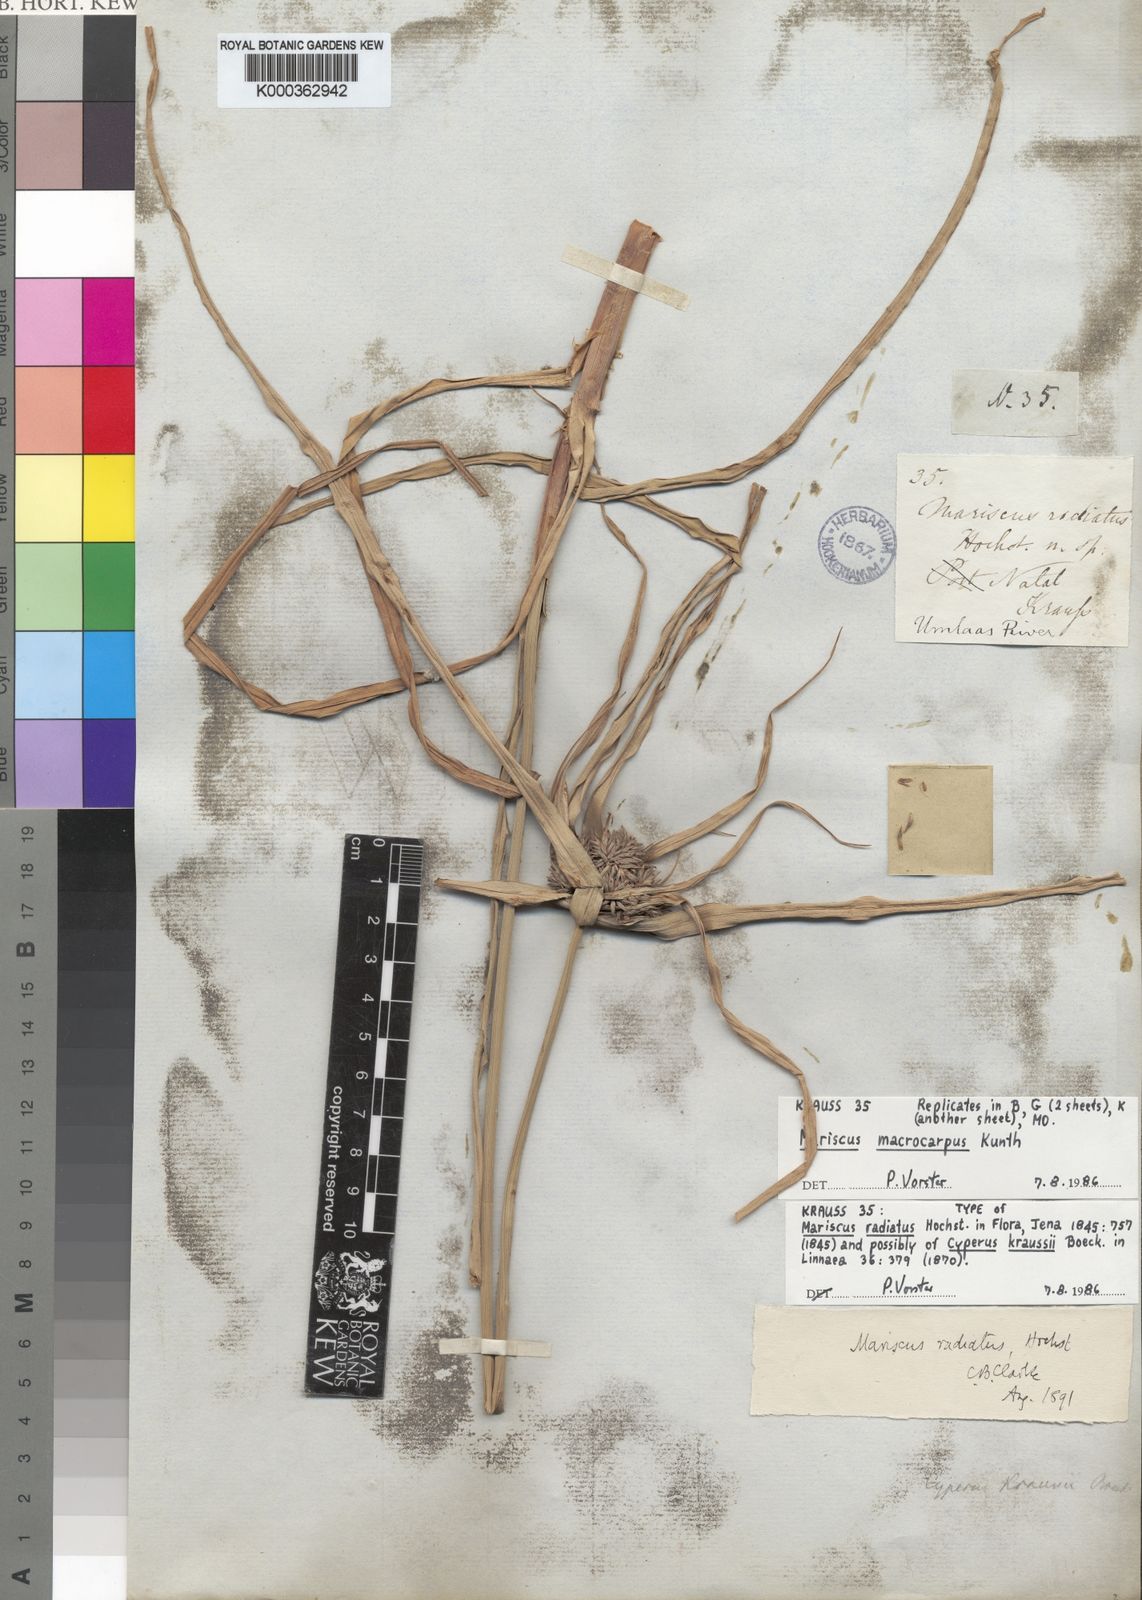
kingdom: Plantae
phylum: Tracheophyta
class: Liliopsida
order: Poales
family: Cyperaceae
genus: Cyperus
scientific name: Cyperus
